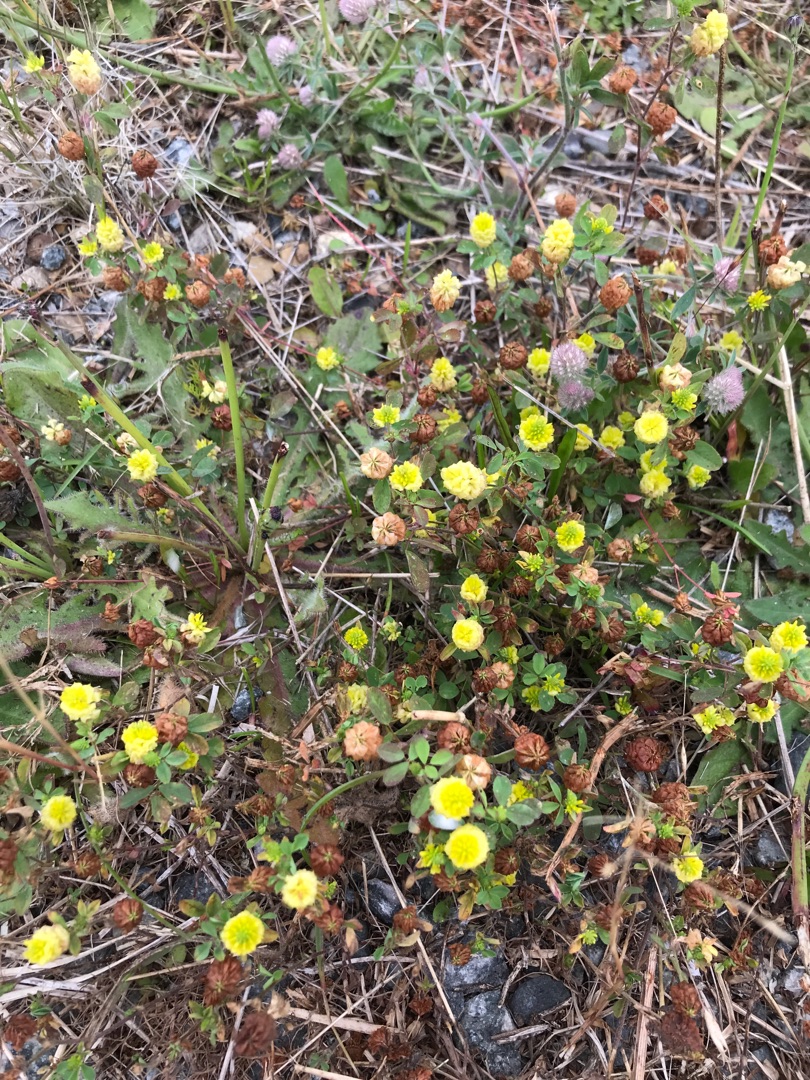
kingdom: Plantae
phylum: Tracheophyta
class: Magnoliopsida
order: Fabales
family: Fabaceae
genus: Trifolium
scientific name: Trifolium campestre
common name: Gul kløver
